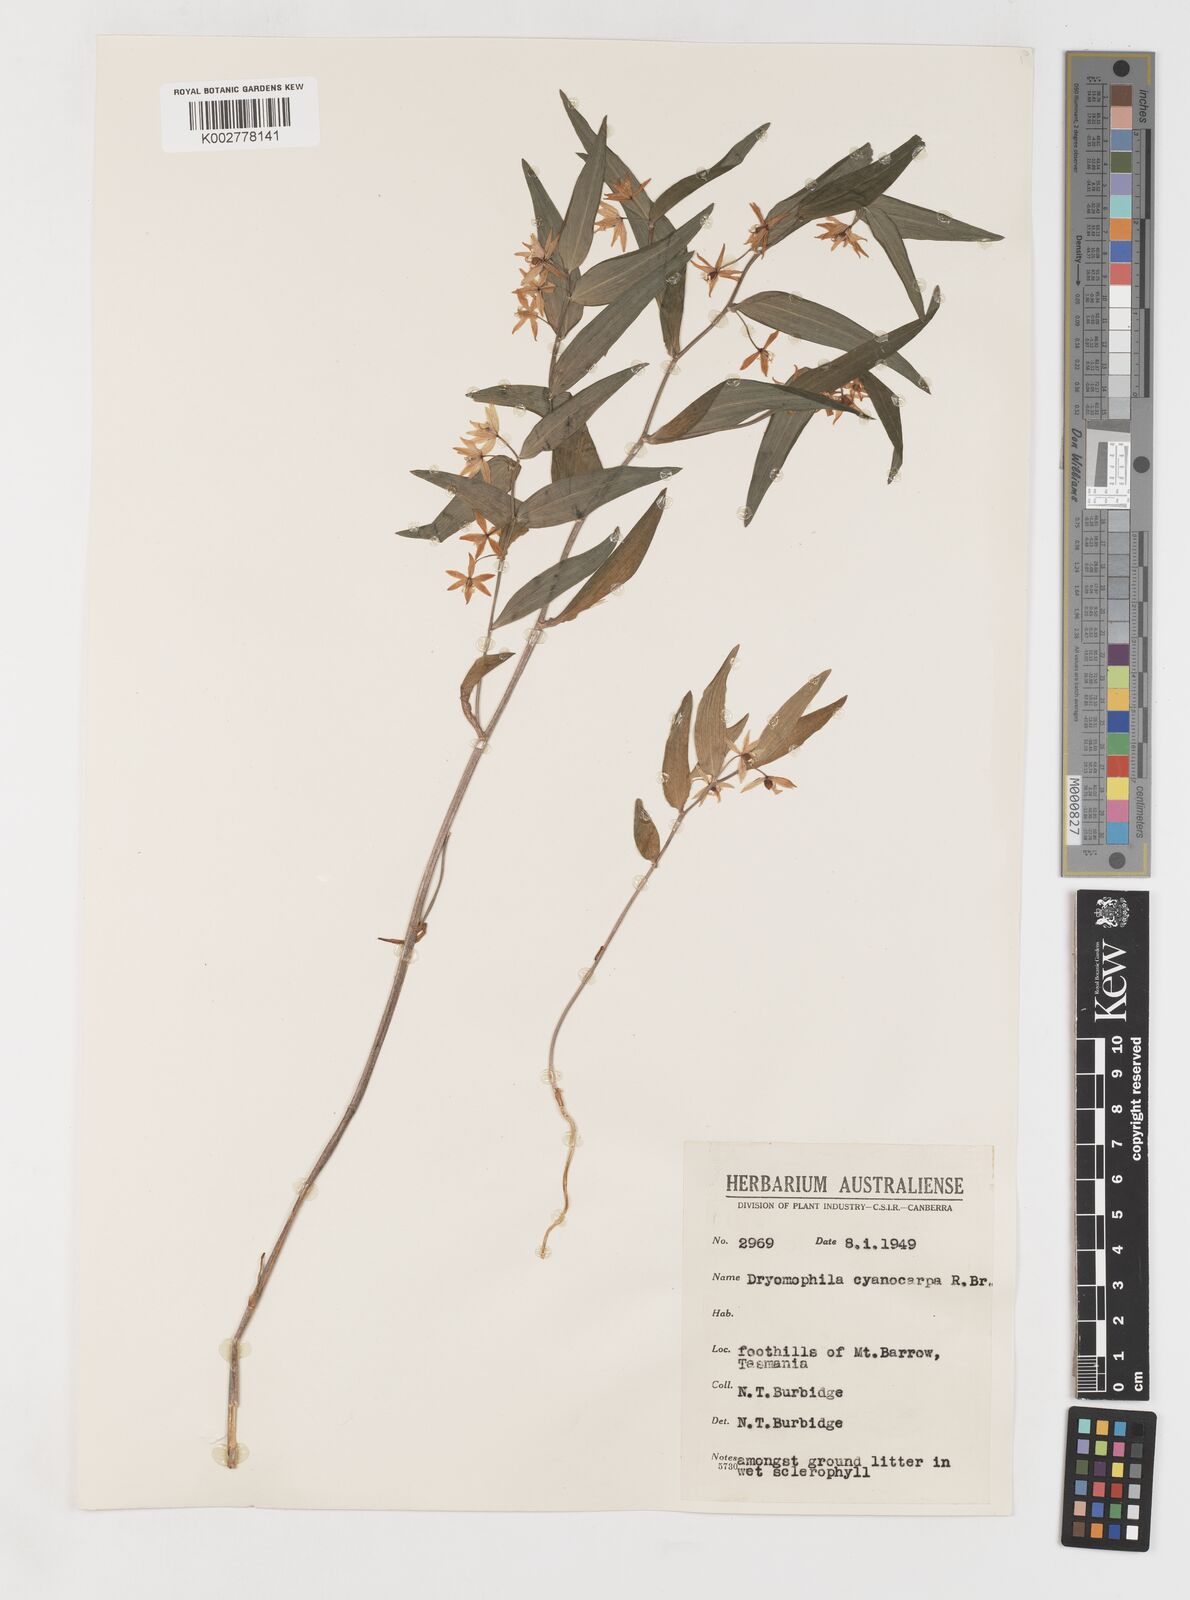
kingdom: Plantae
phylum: Tracheophyta
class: Liliopsida
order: Liliales
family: Alstroemeriaceae
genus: Drymophila
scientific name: Drymophila cyanocarpa
